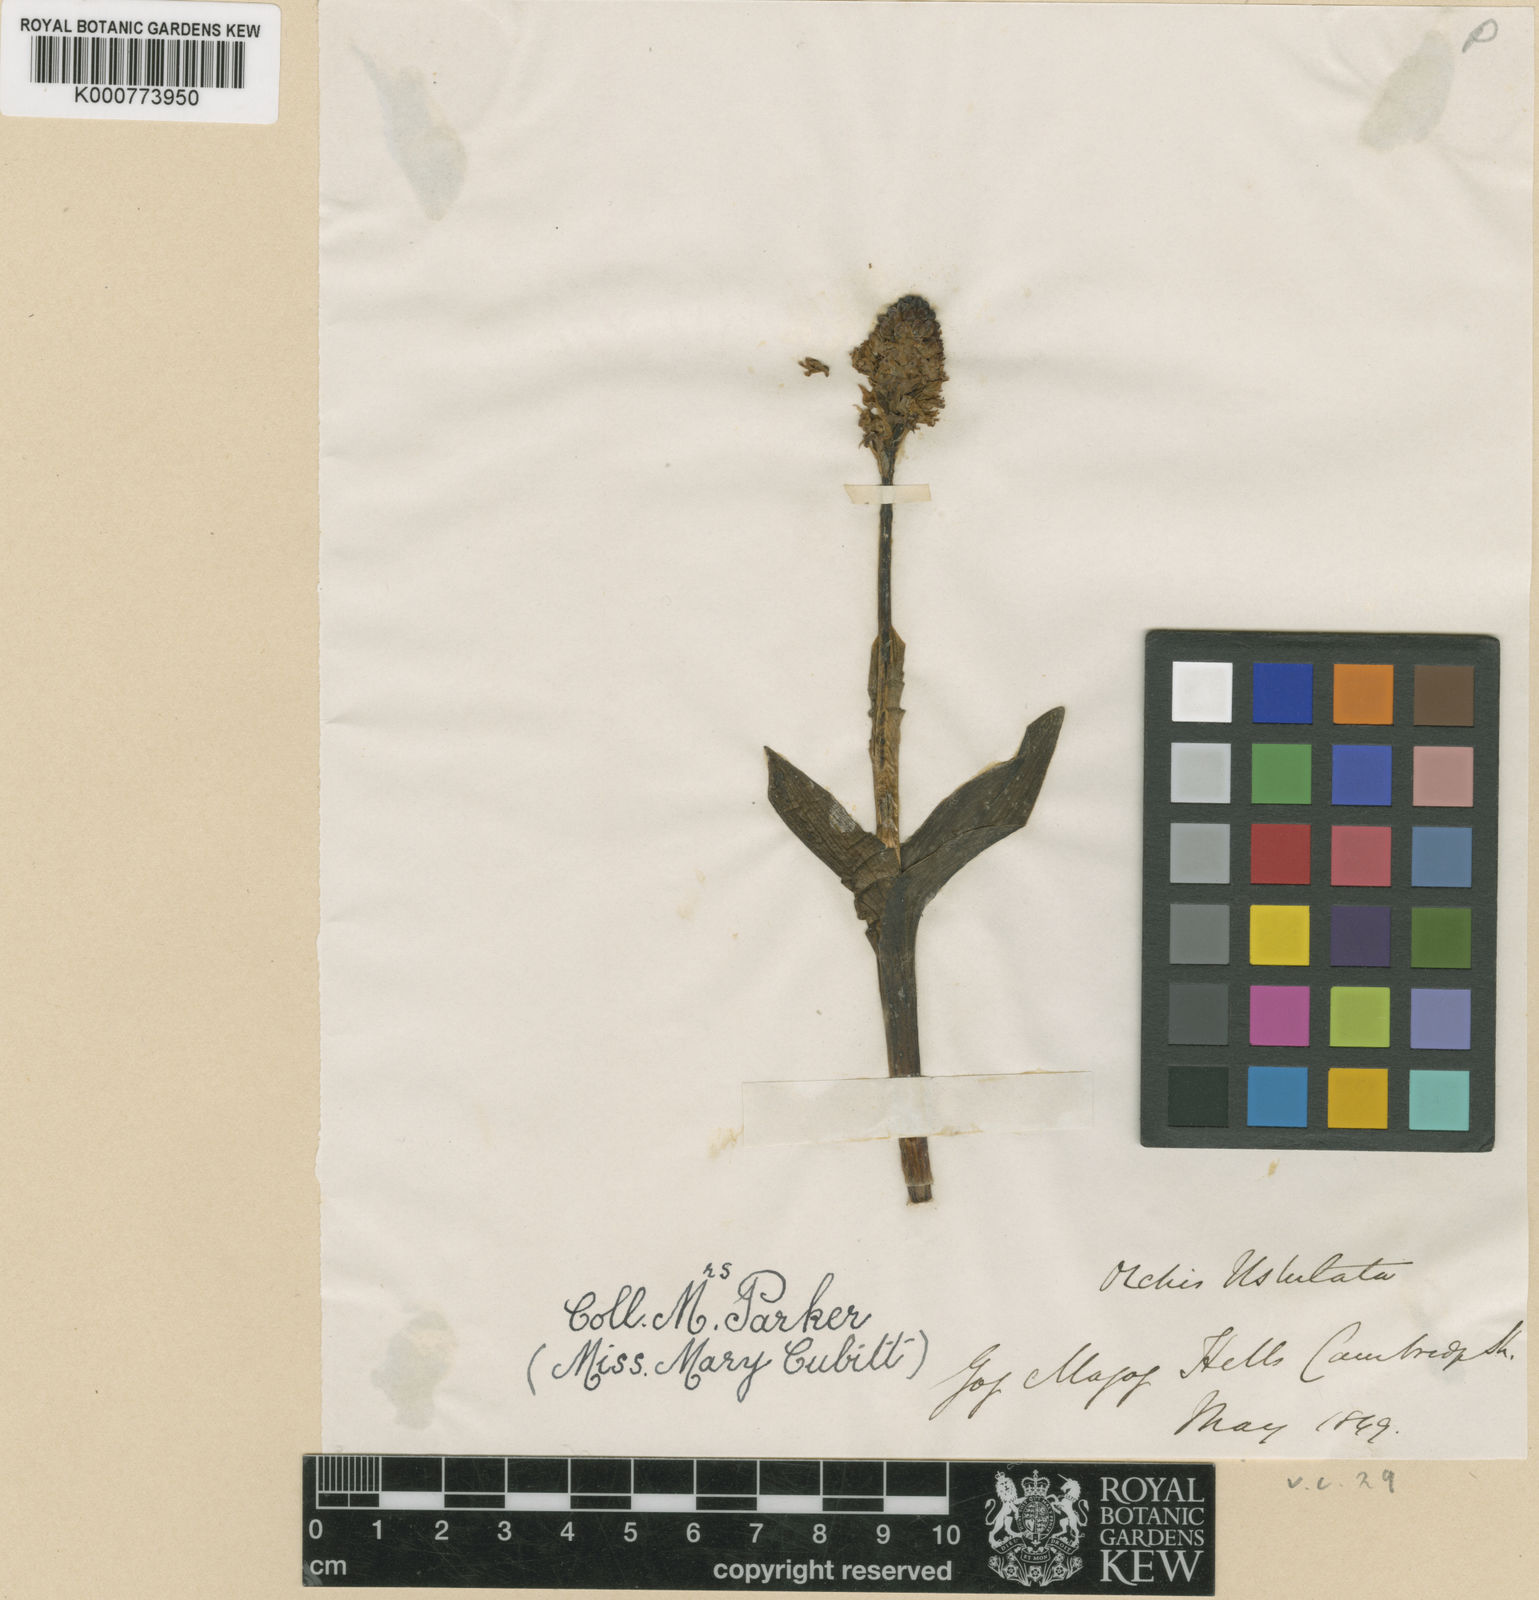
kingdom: Plantae
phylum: Tracheophyta
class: Liliopsida
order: Asparagales
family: Orchidaceae
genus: Neotinea
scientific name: Neotinea ustulata
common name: Burnt orchid
